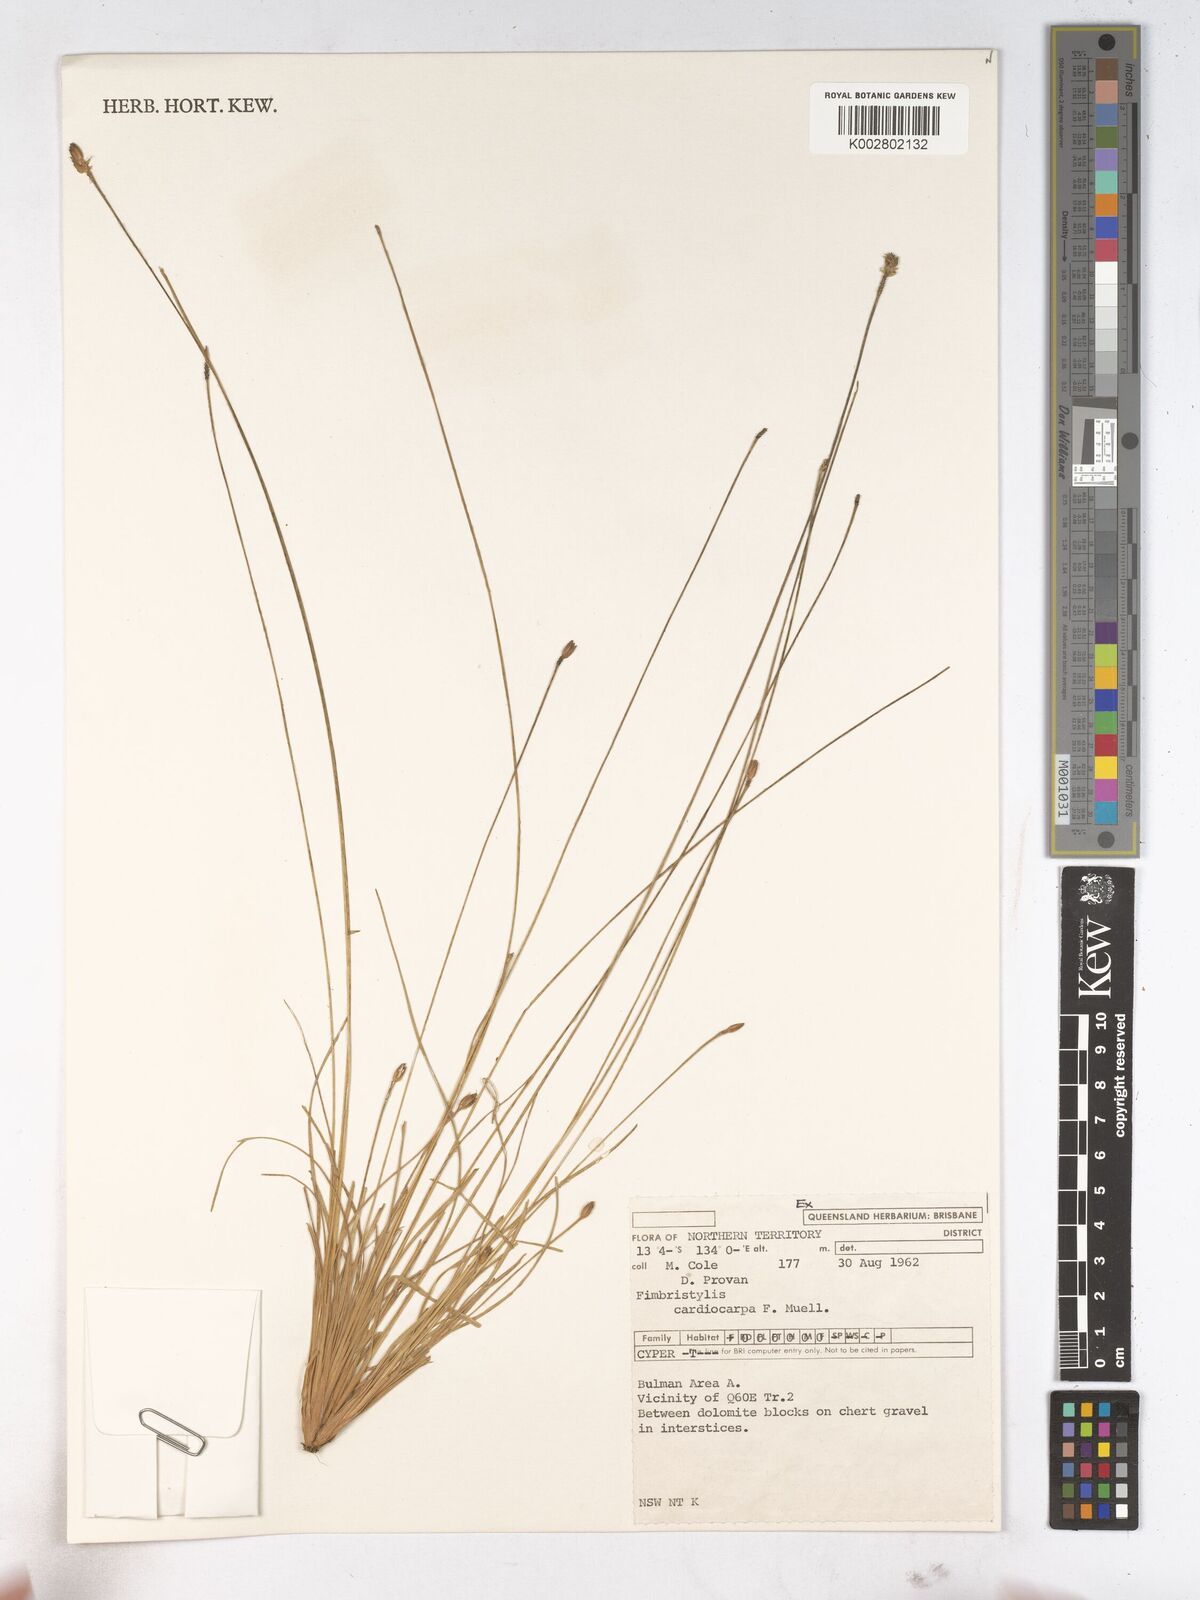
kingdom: Plantae
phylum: Tracheophyta
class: Liliopsida
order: Poales
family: Cyperaceae
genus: Fimbristylis
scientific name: Fimbristylis cardiocarpa
